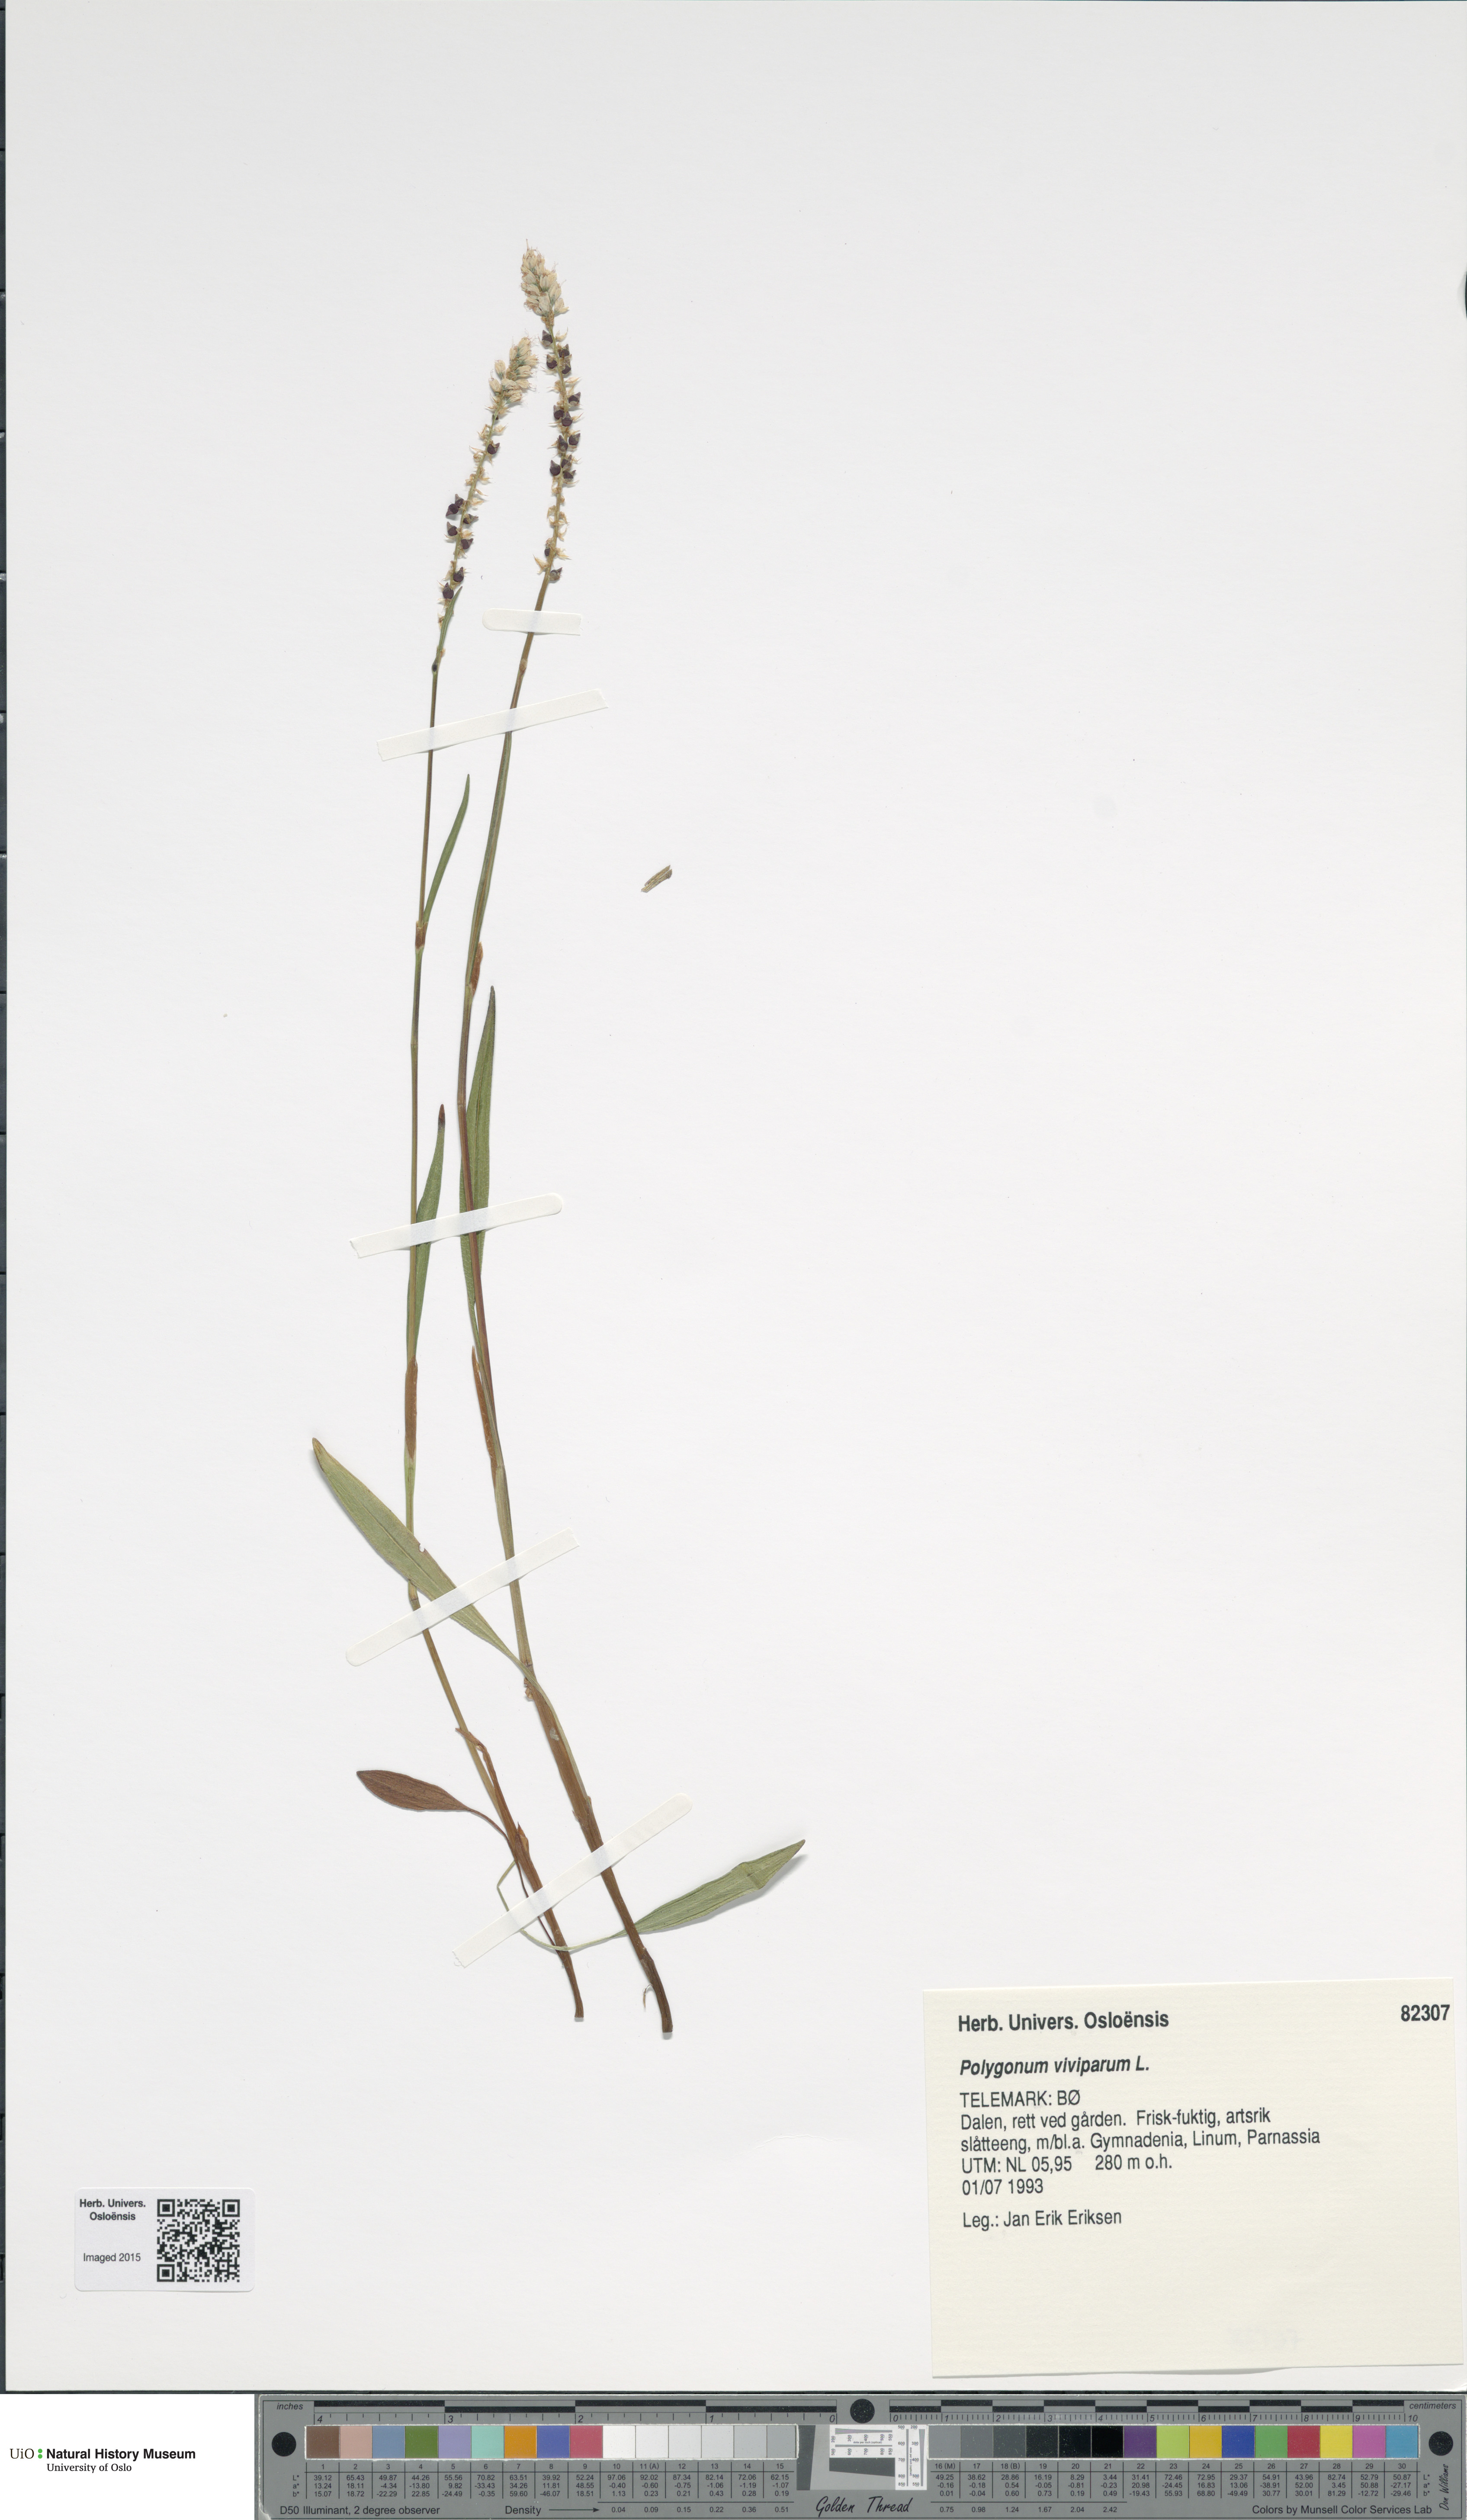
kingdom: Plantae
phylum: Tracheophyta
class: Magnoliopsida
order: Caryophyllales
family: Polygonaceae
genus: Bistorta
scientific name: Bistorta vivipara
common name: Alpine bistort
